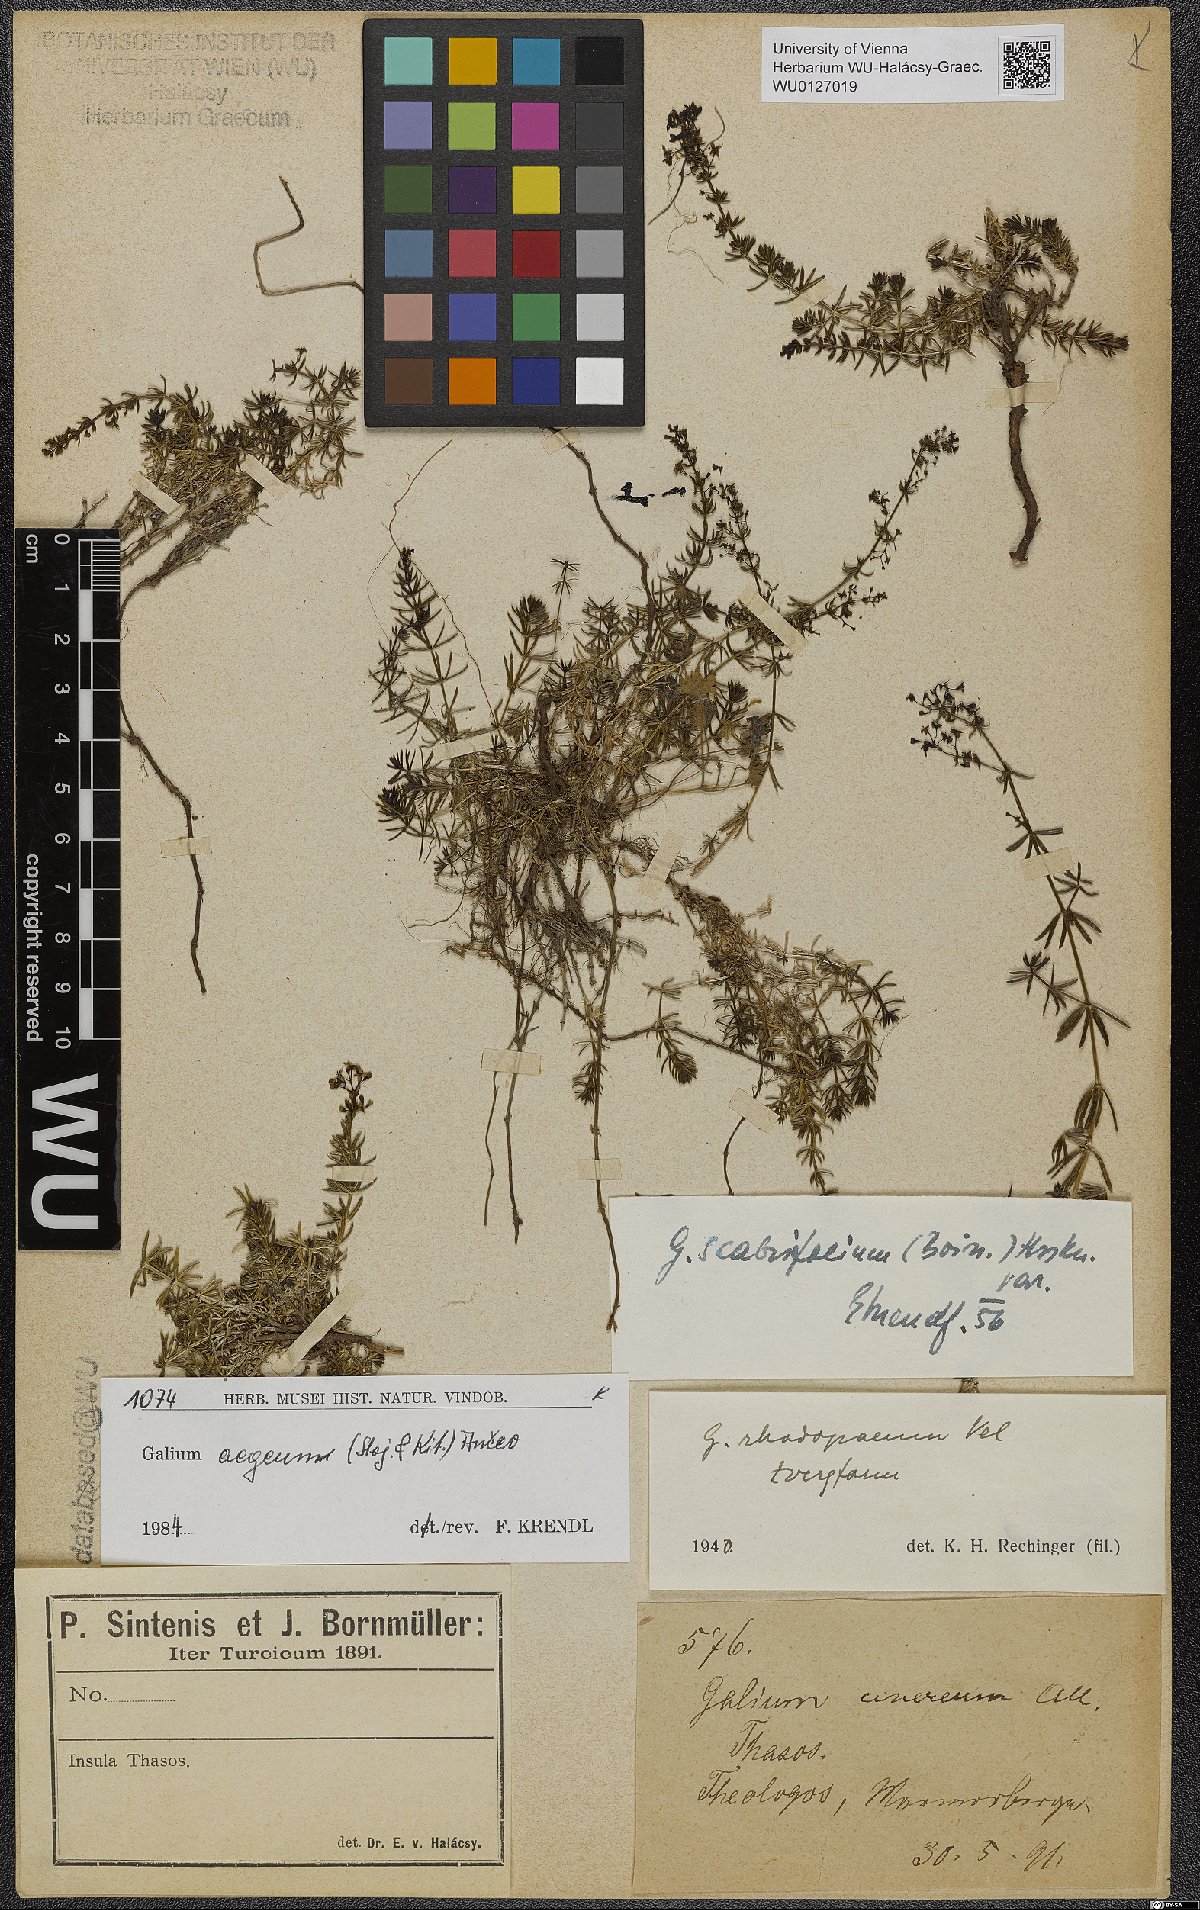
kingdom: Plantae
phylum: Tracheophyta
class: Magnoliopsida
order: Gentianales
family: Rubiaceae
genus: Galium
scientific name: Galium aegeum
